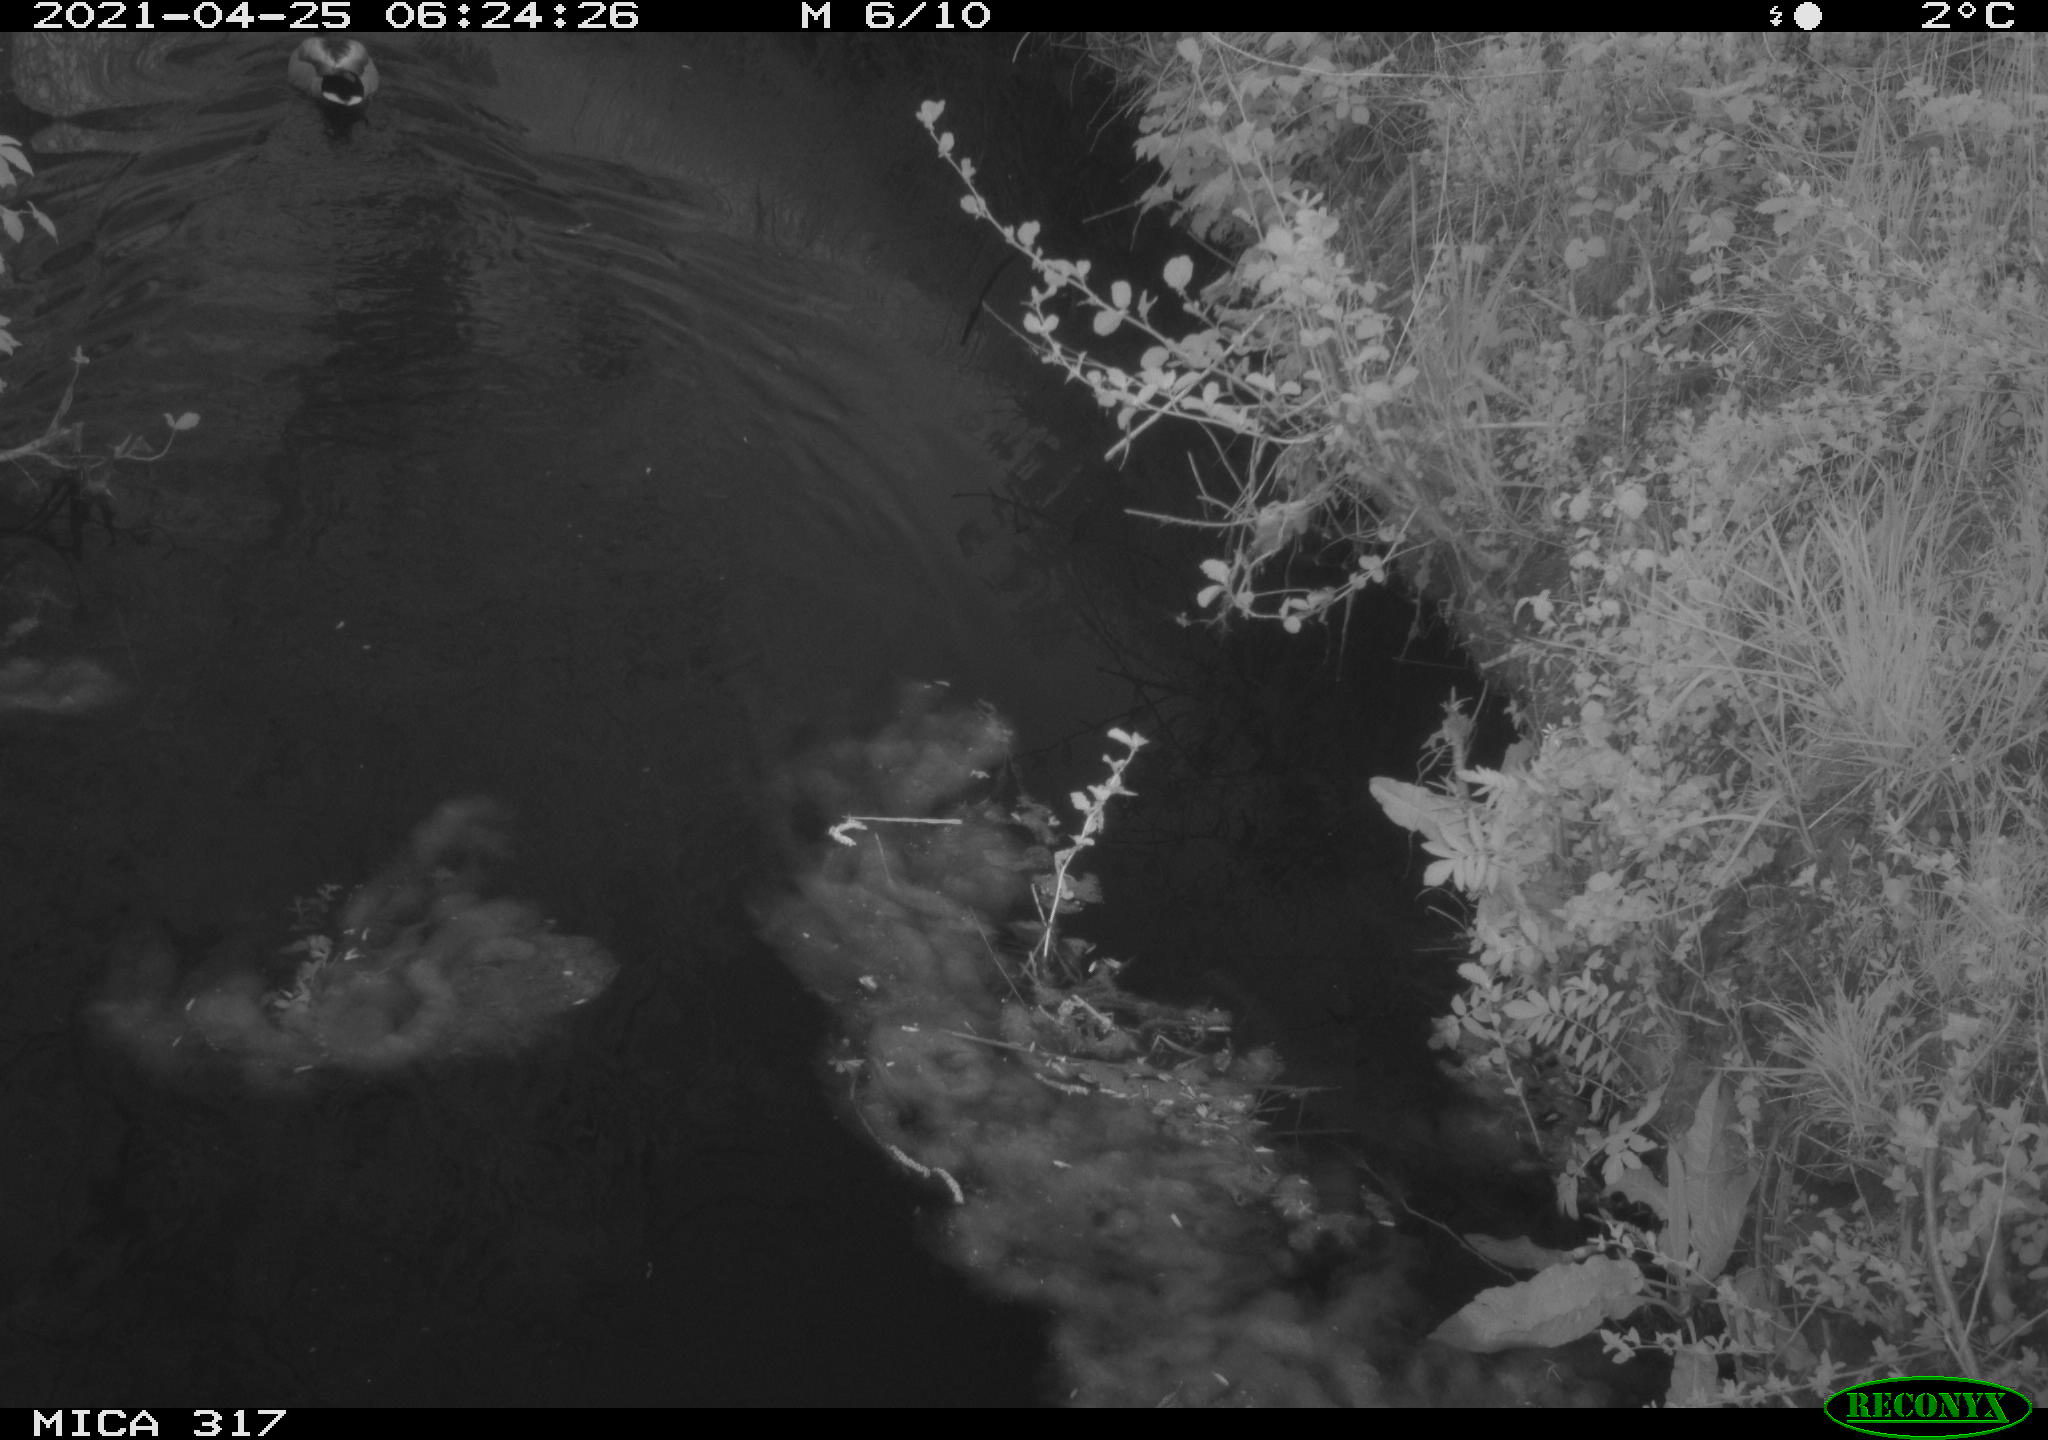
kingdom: Animalia
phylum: Chordata
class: Aves
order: Anseriformes
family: Anatidae
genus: Anas
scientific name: Anas
